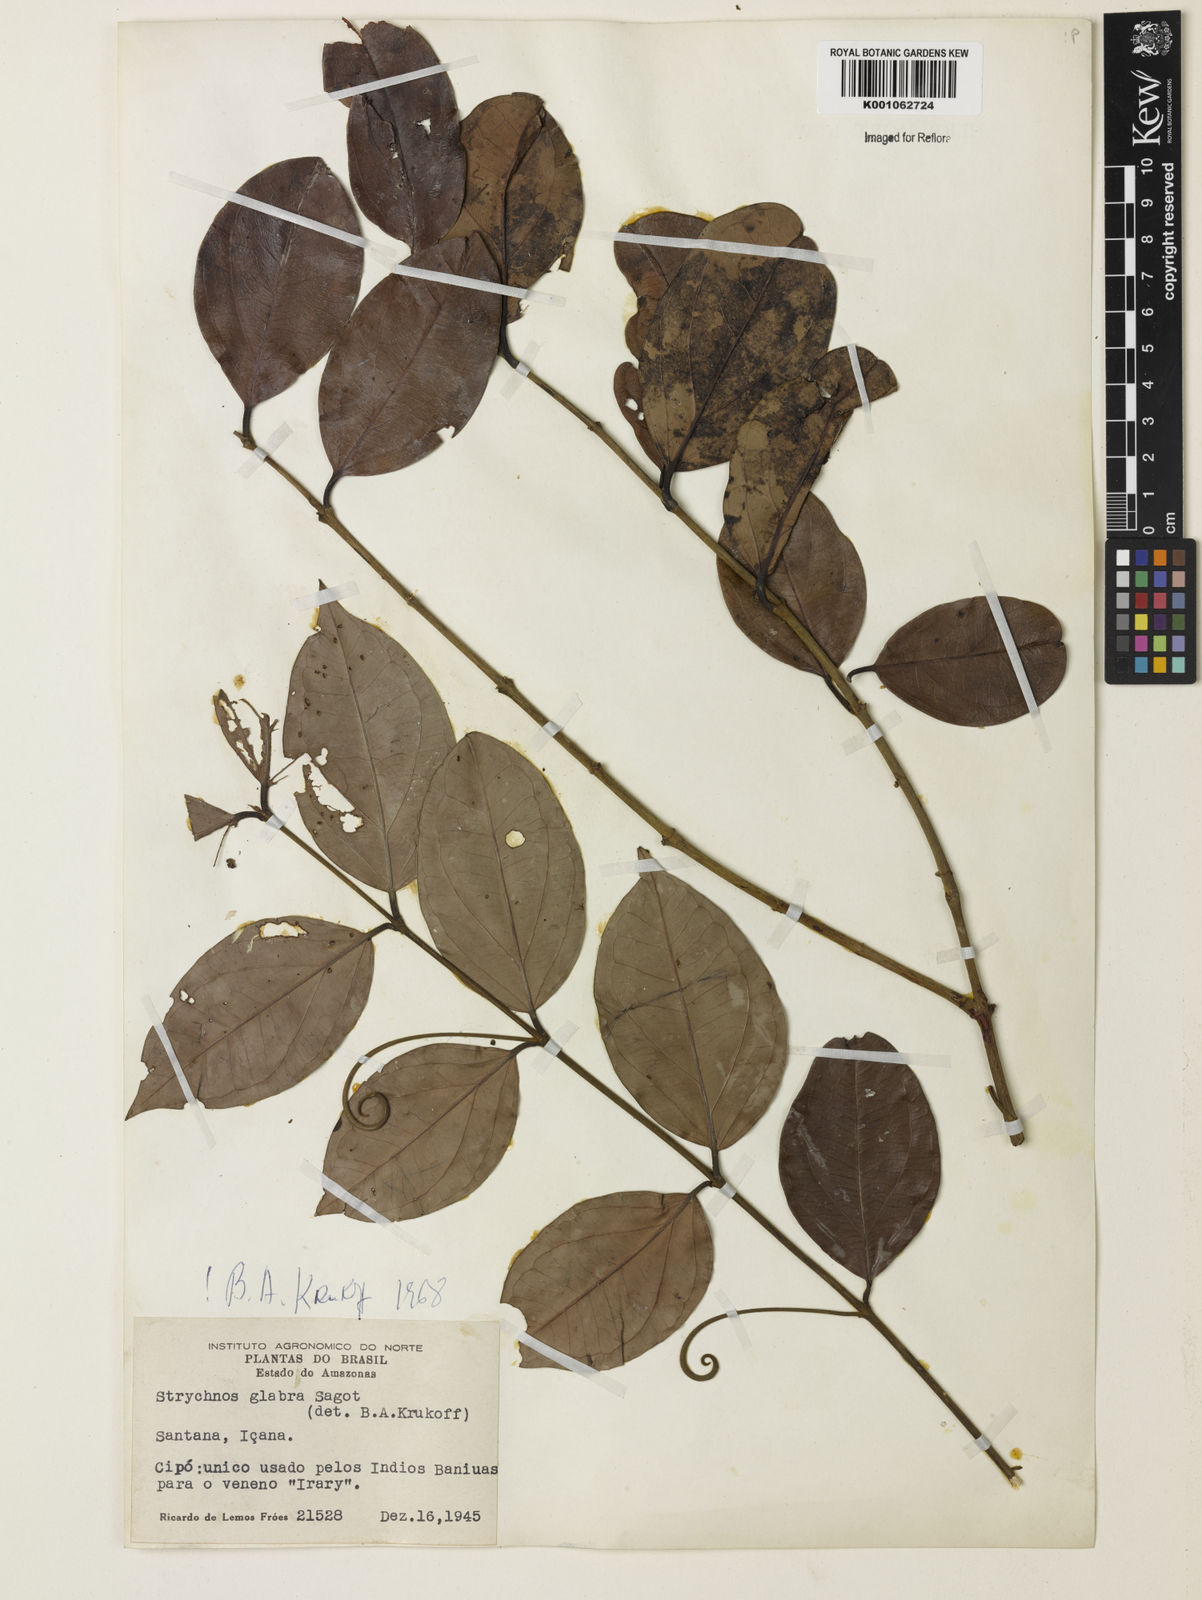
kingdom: Plantae
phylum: Tracheophyta
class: Magnoliopsida
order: Gentianales
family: Loganiaceae
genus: Strychnos
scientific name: Strychnos glabra
